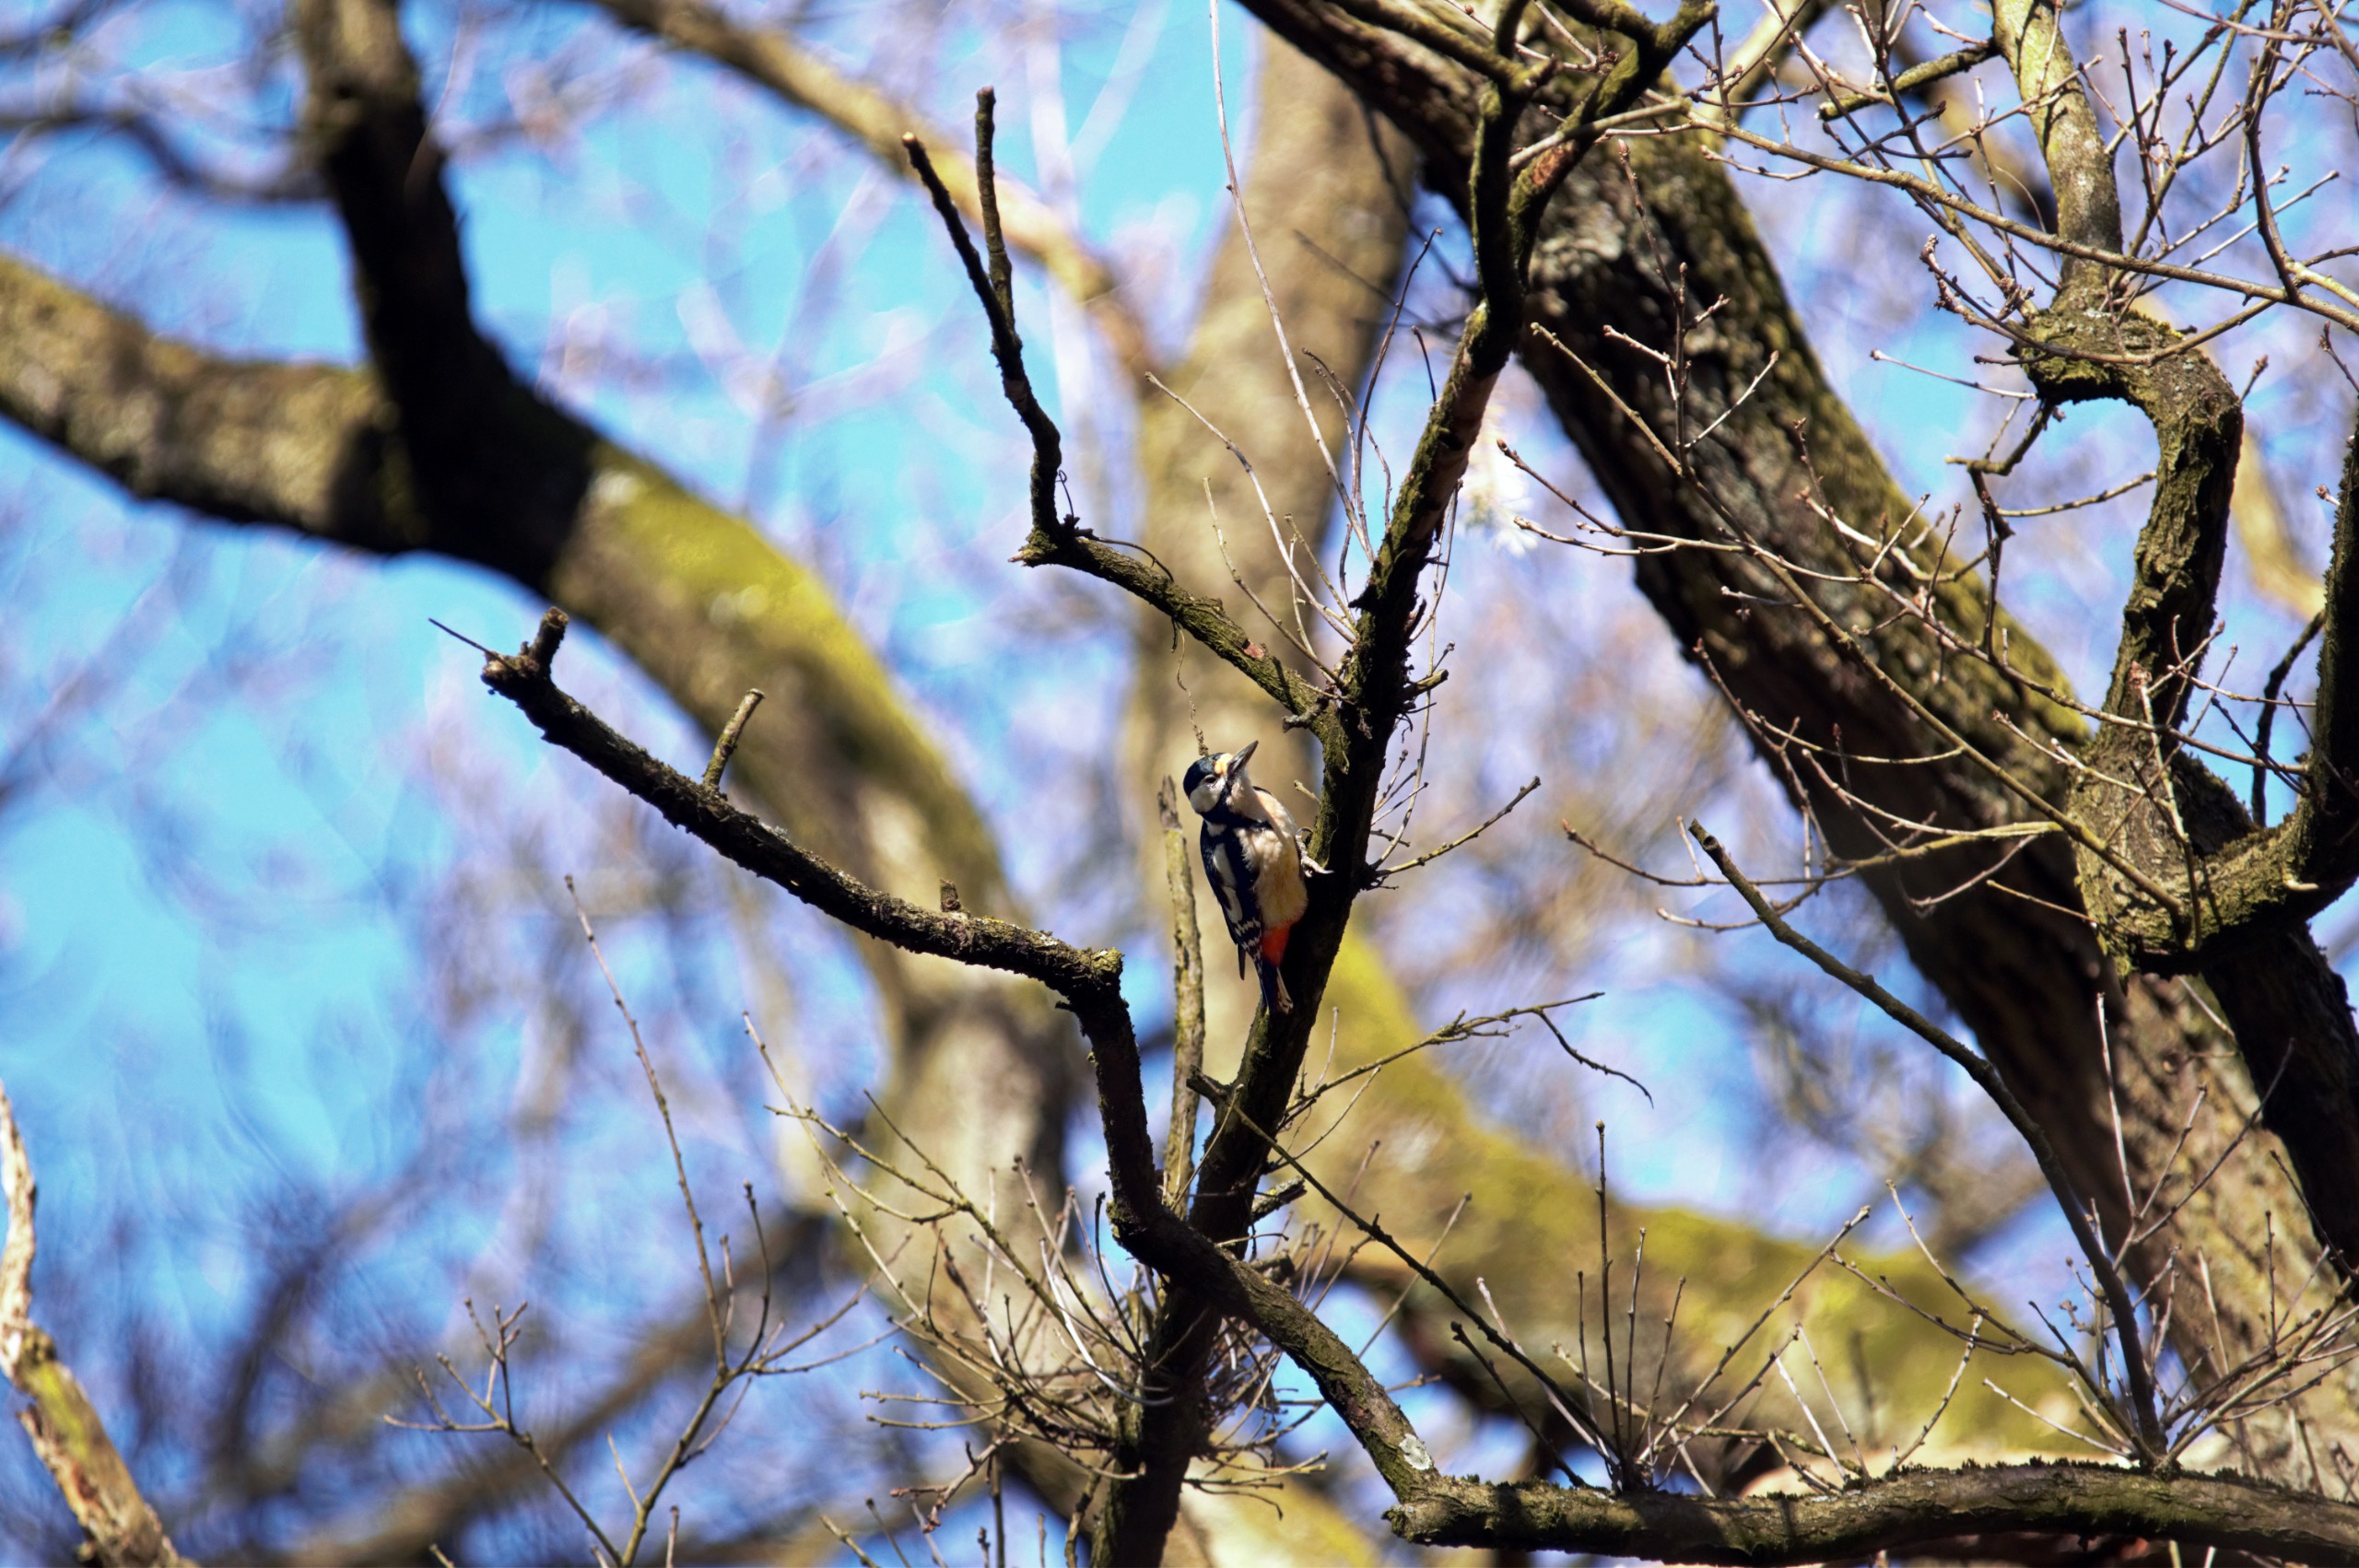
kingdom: Animalia
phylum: Chordata
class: Aves
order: Piciformes
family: Picidae
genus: Dendrocopos
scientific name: Dendrocopos major
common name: Stor flagspætte
